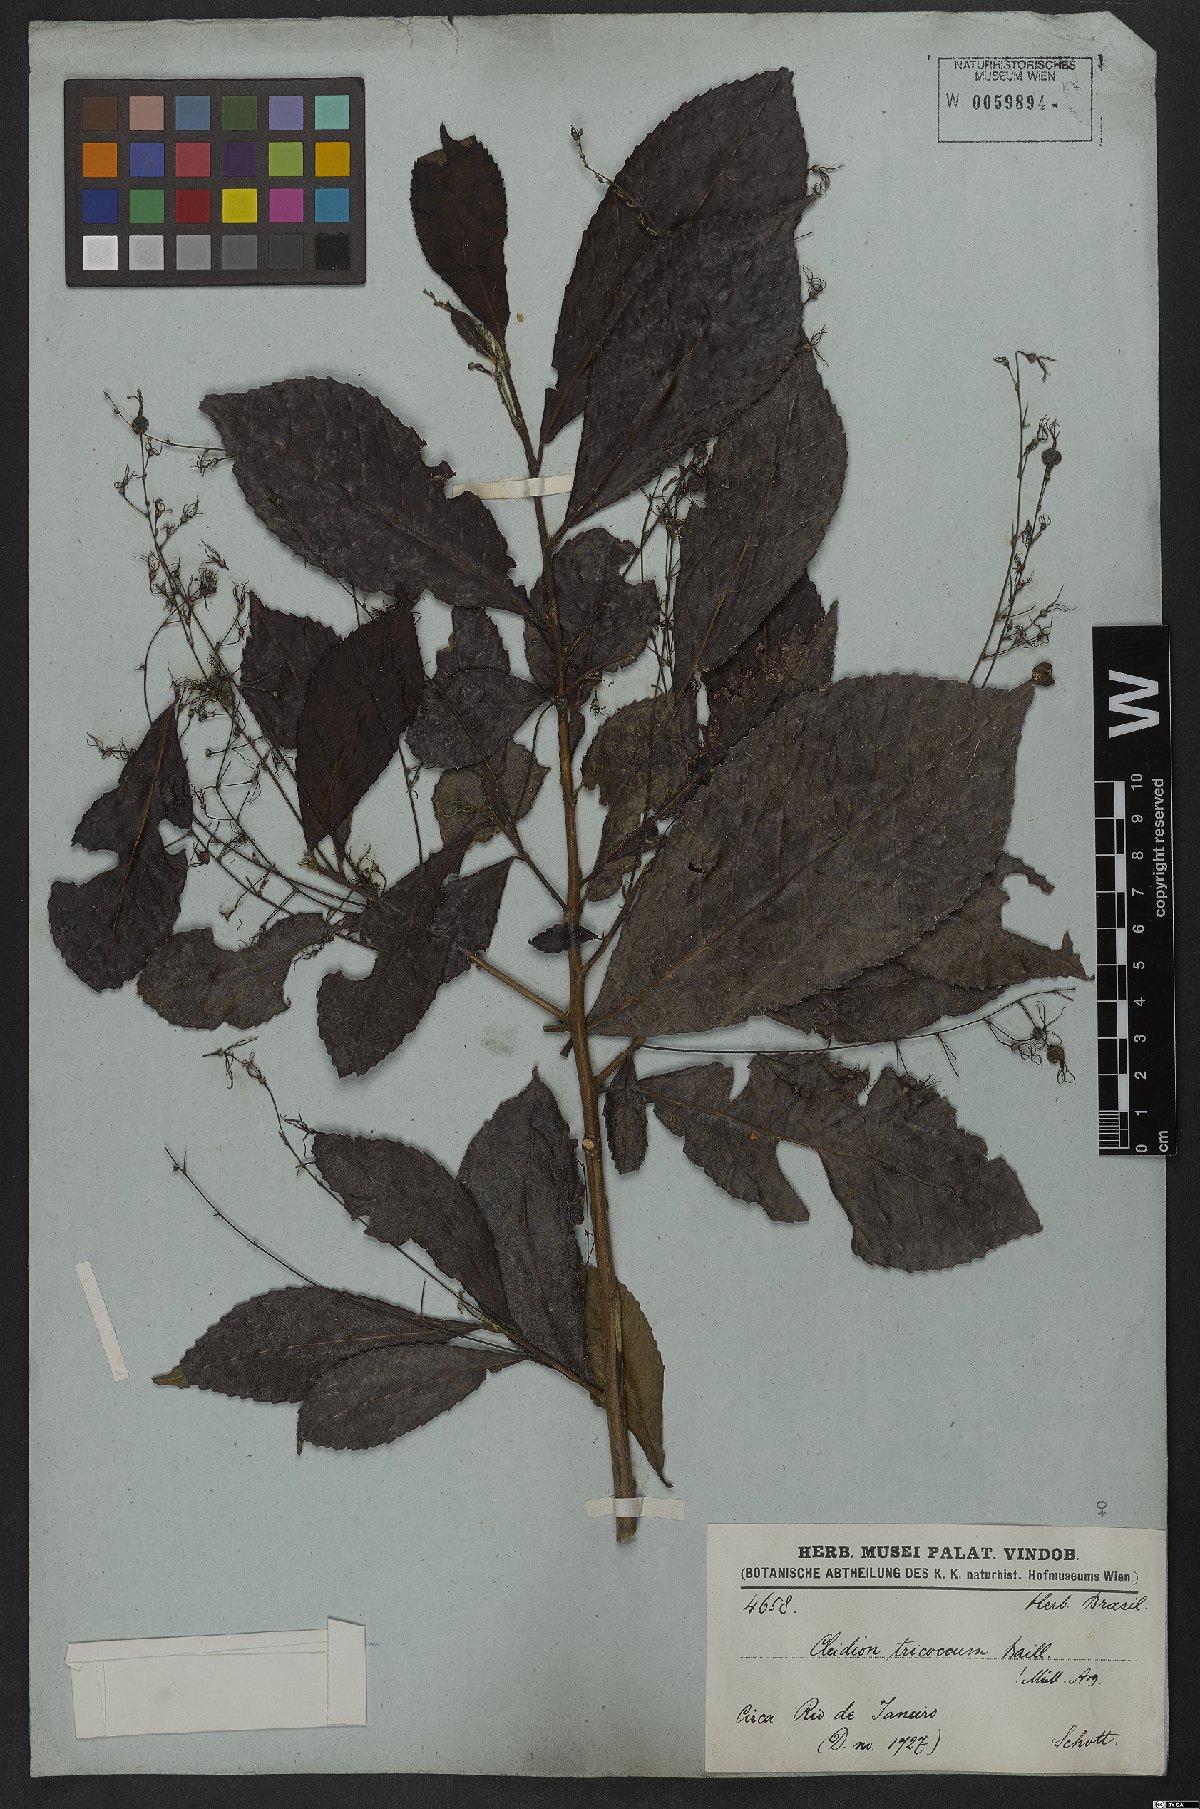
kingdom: Plantae
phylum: Tracheophyta
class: Magnoliopsida
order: Malpighiales
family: Euphorbiaceae
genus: Cleidion
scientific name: Cleidion tricoccum
